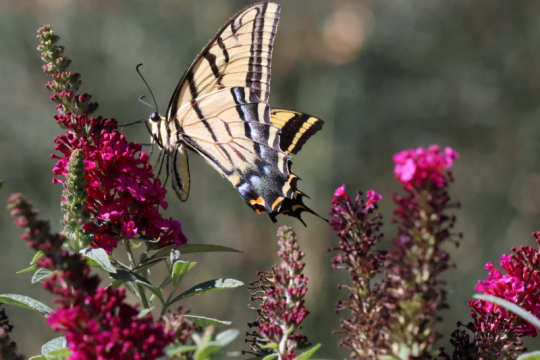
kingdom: Animalia
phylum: Arthropoda
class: Insecta
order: Lepidoptera
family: Papilionidae
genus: Papilio
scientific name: Papilio multicaudata
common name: Two-tailed Swallowtail
